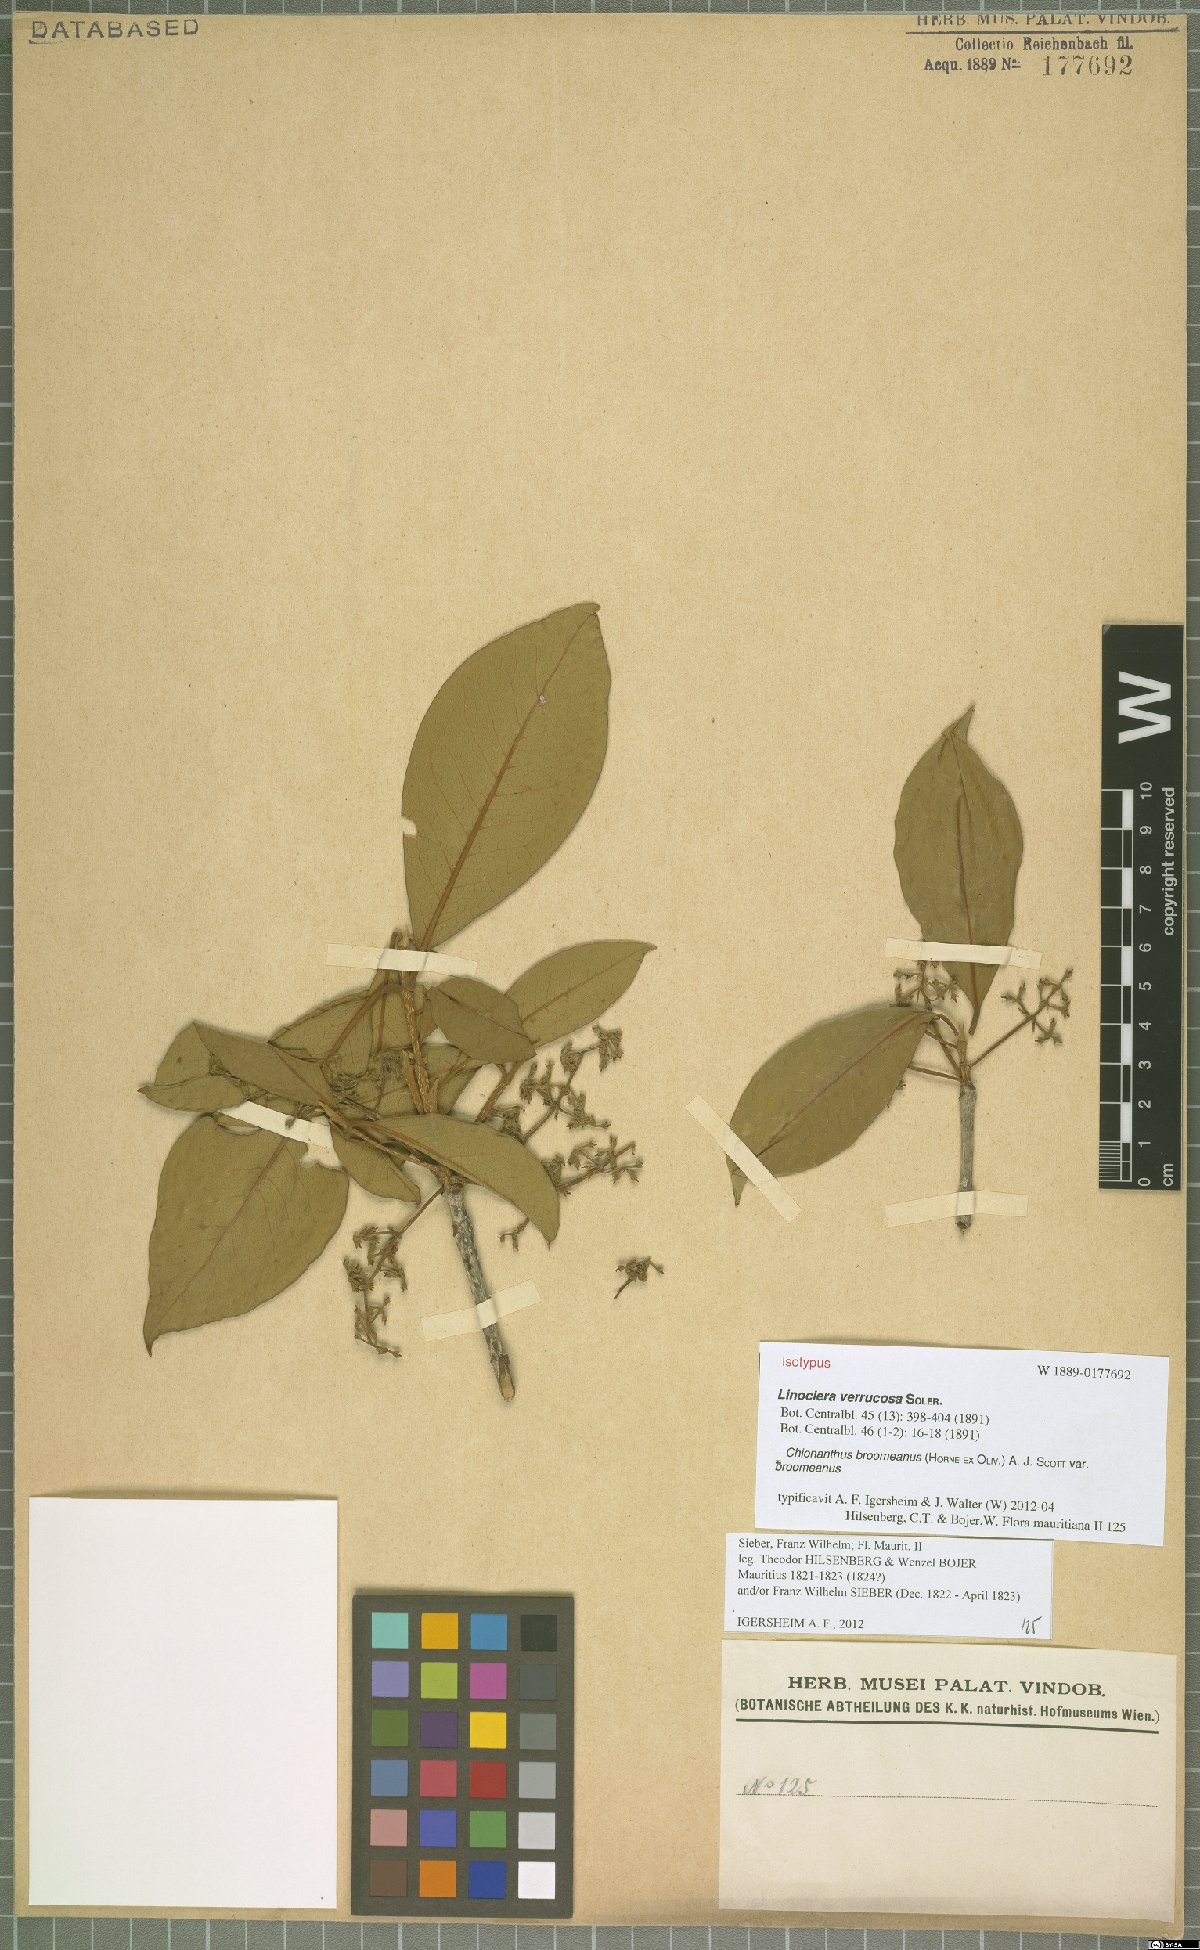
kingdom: Plantae
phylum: Tracheophyta
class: Magnoliopsida
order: Lamiales
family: Oleaceae
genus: Noronhia
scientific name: Noronhia broomeana
